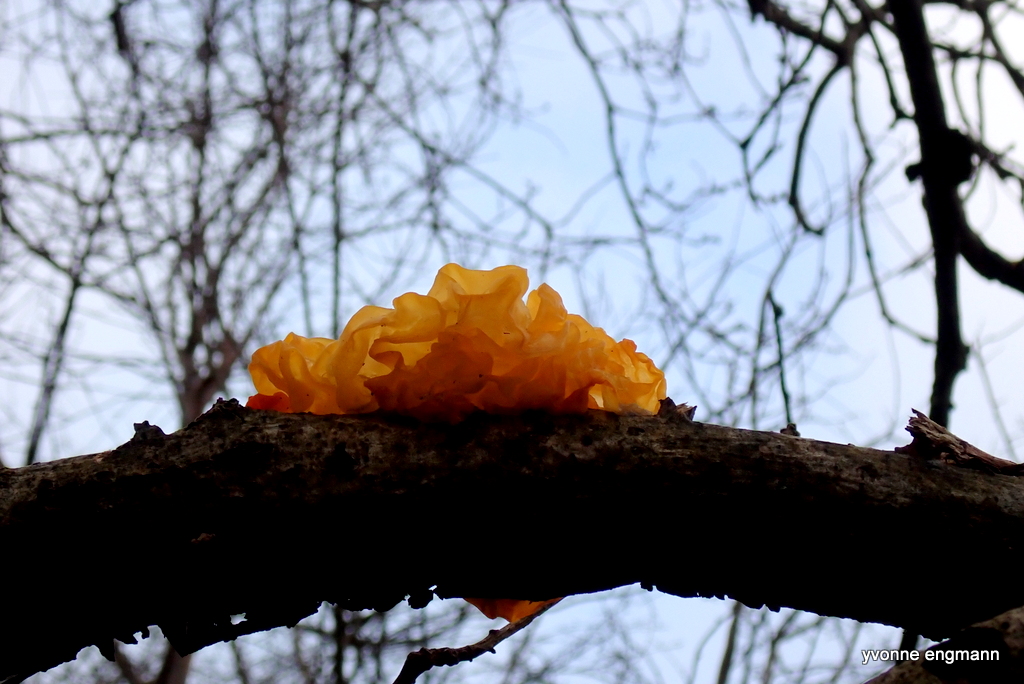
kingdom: Fungi
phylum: Basidiomycota
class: Tremellomycetes
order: Tremellales
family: Tremellaceae
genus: Tremella
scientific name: Tremella mesenterica
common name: gul bævresvamp
